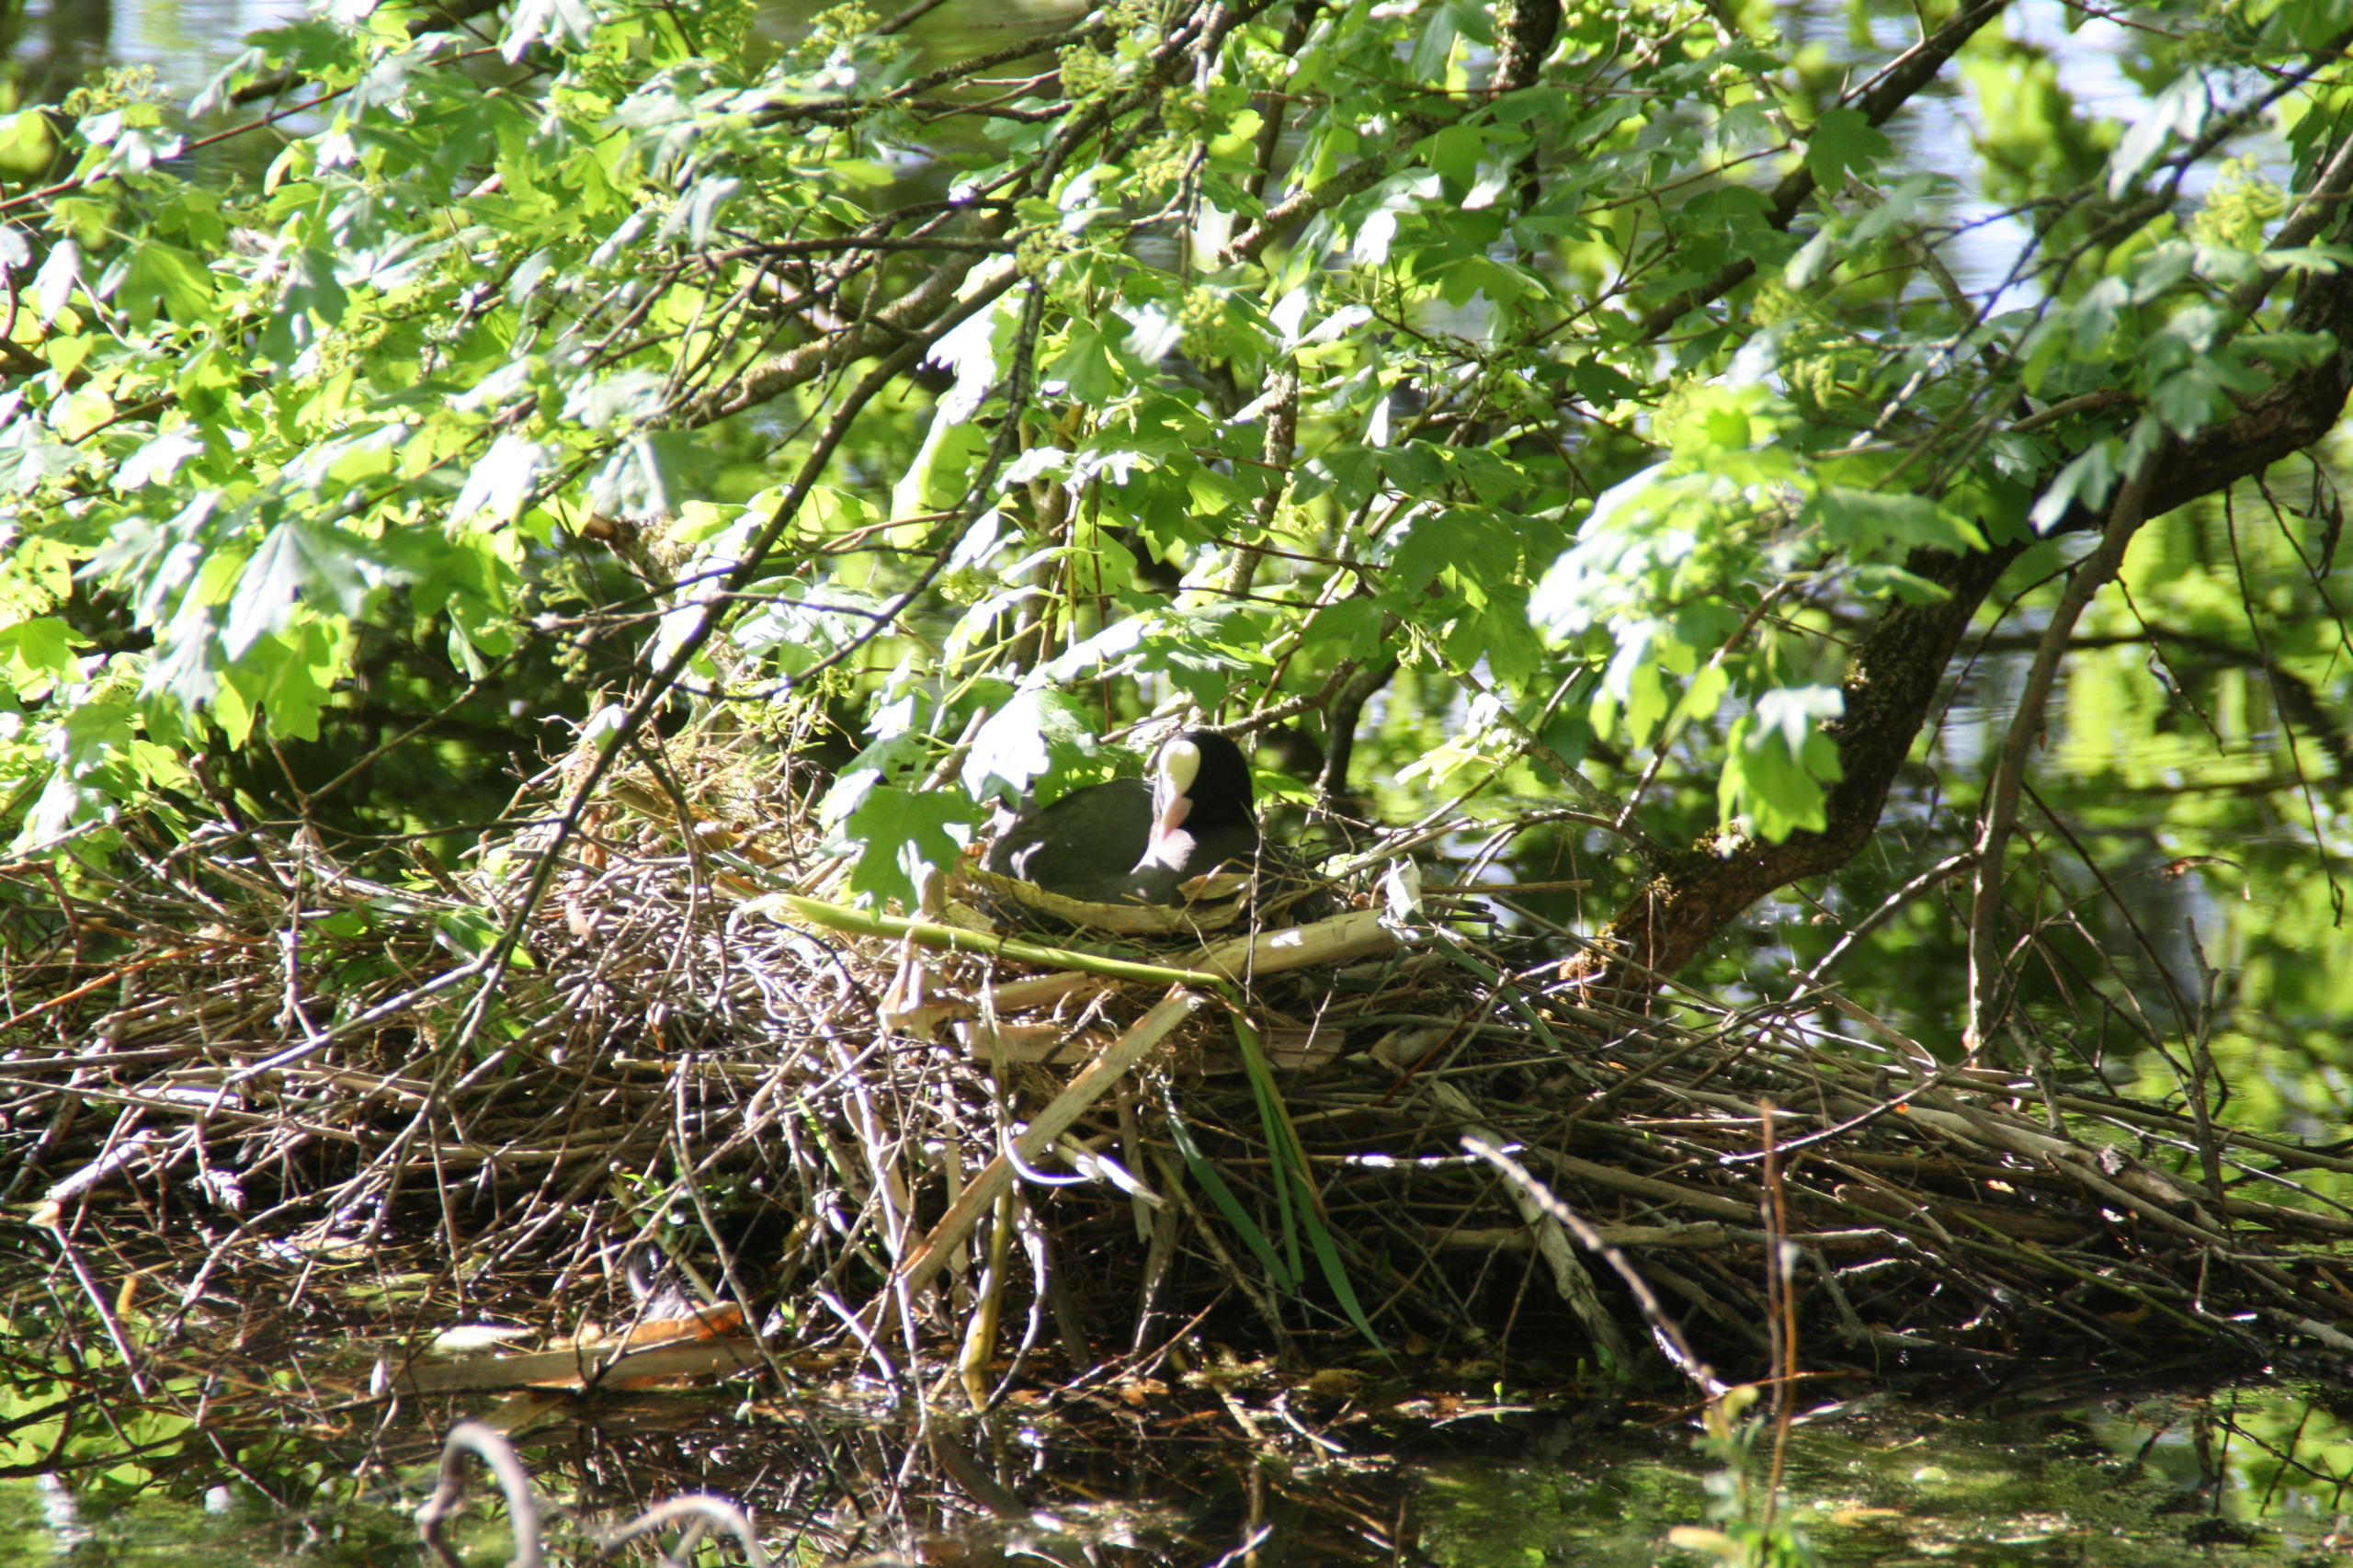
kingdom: Animalia
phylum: Chordata
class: Aves
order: Gruiformes
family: Rallidae
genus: Fulica
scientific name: Fulica atra
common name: Blishøne
